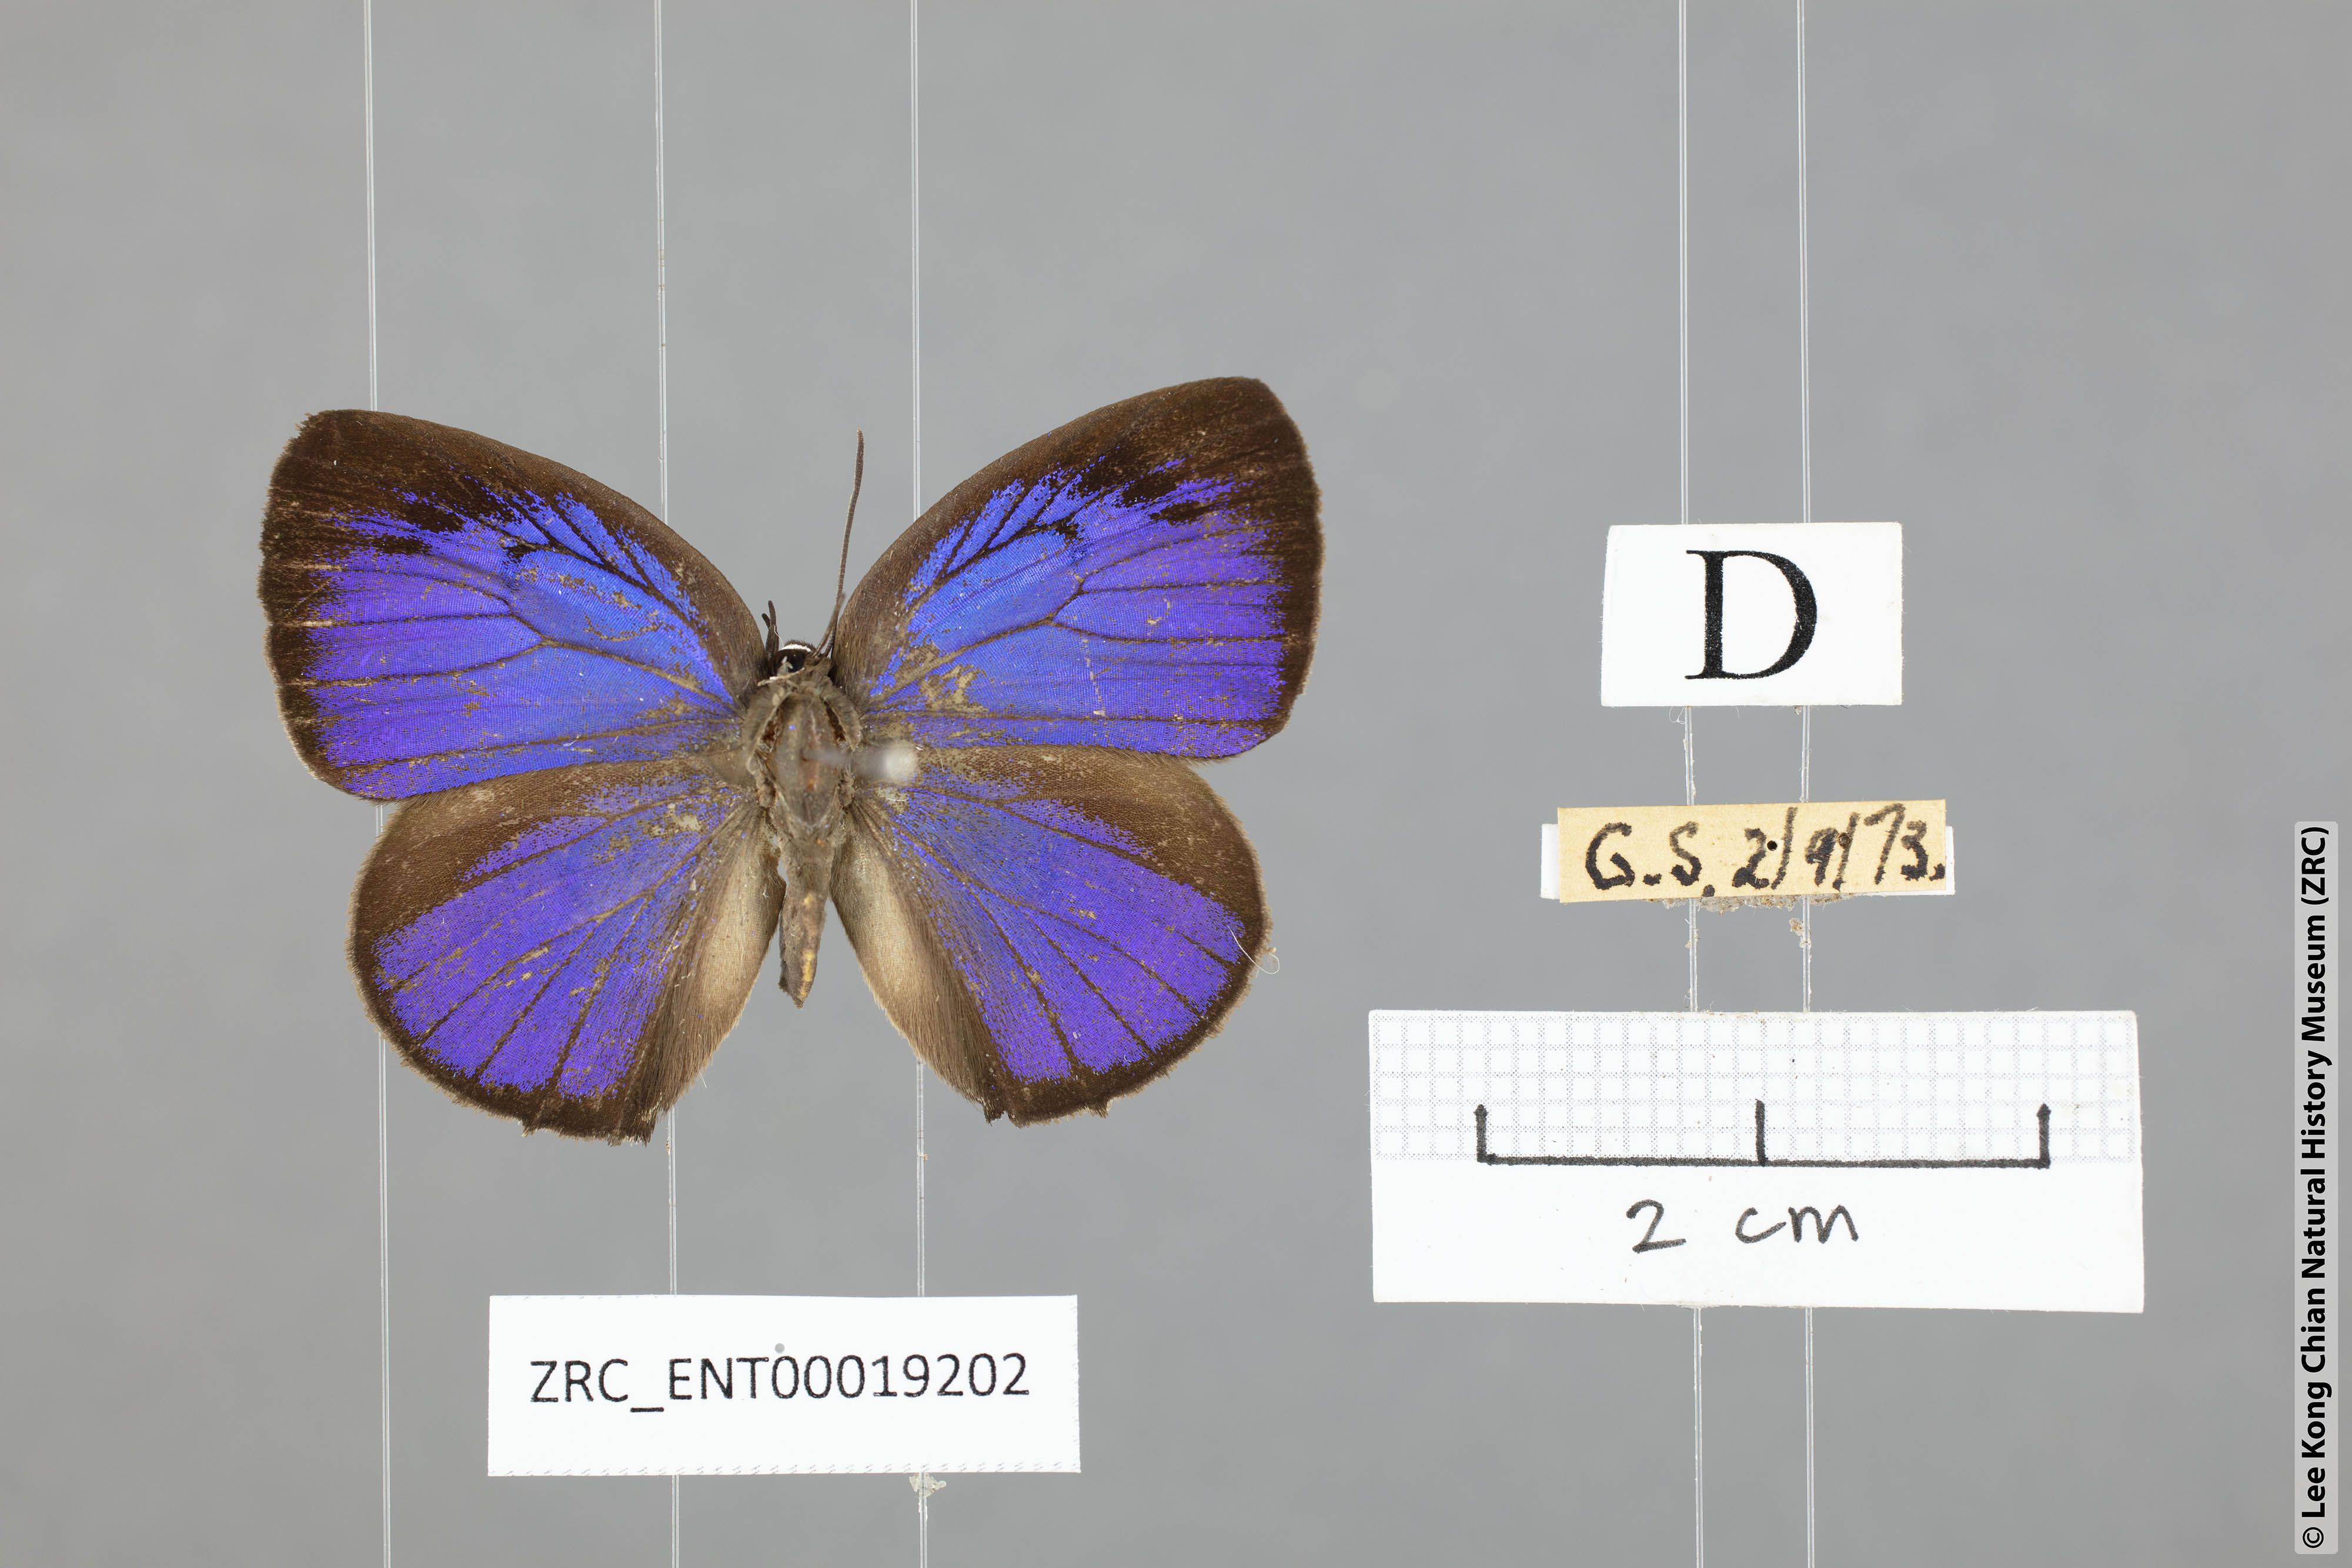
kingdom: Animalia
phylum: Arthropoda
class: Insecta
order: Lepidoptera
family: Lycaenidae
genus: Arhopala
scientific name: Arhopala arvina
